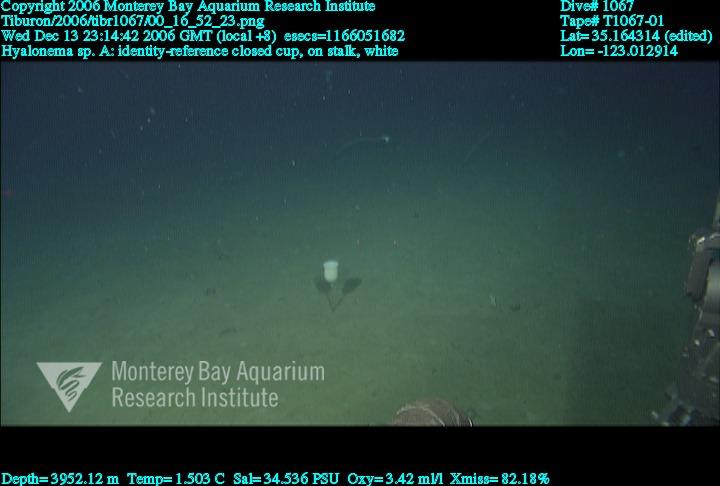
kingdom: Animalia
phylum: Porifera
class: Hexactinellida
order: Amphidiscosida
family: Hyalonematidae
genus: Hyalonema
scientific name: Hyalonema
